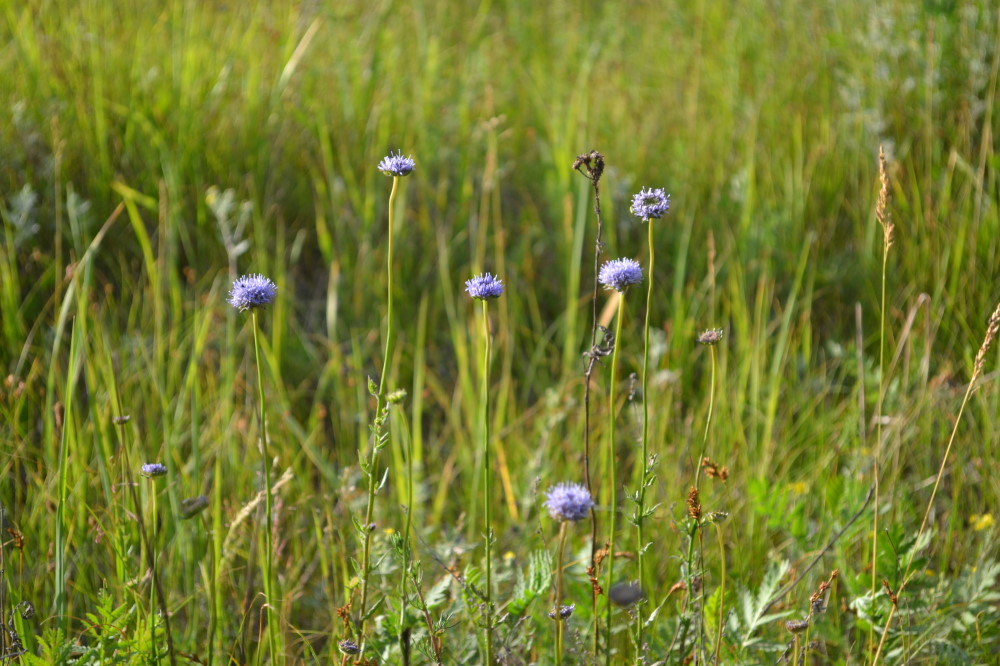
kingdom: Plantae
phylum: Tracheophyta
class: Magnoliopsida
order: Asterales
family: Campanulaceae
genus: Jasione
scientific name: Jasione montana
